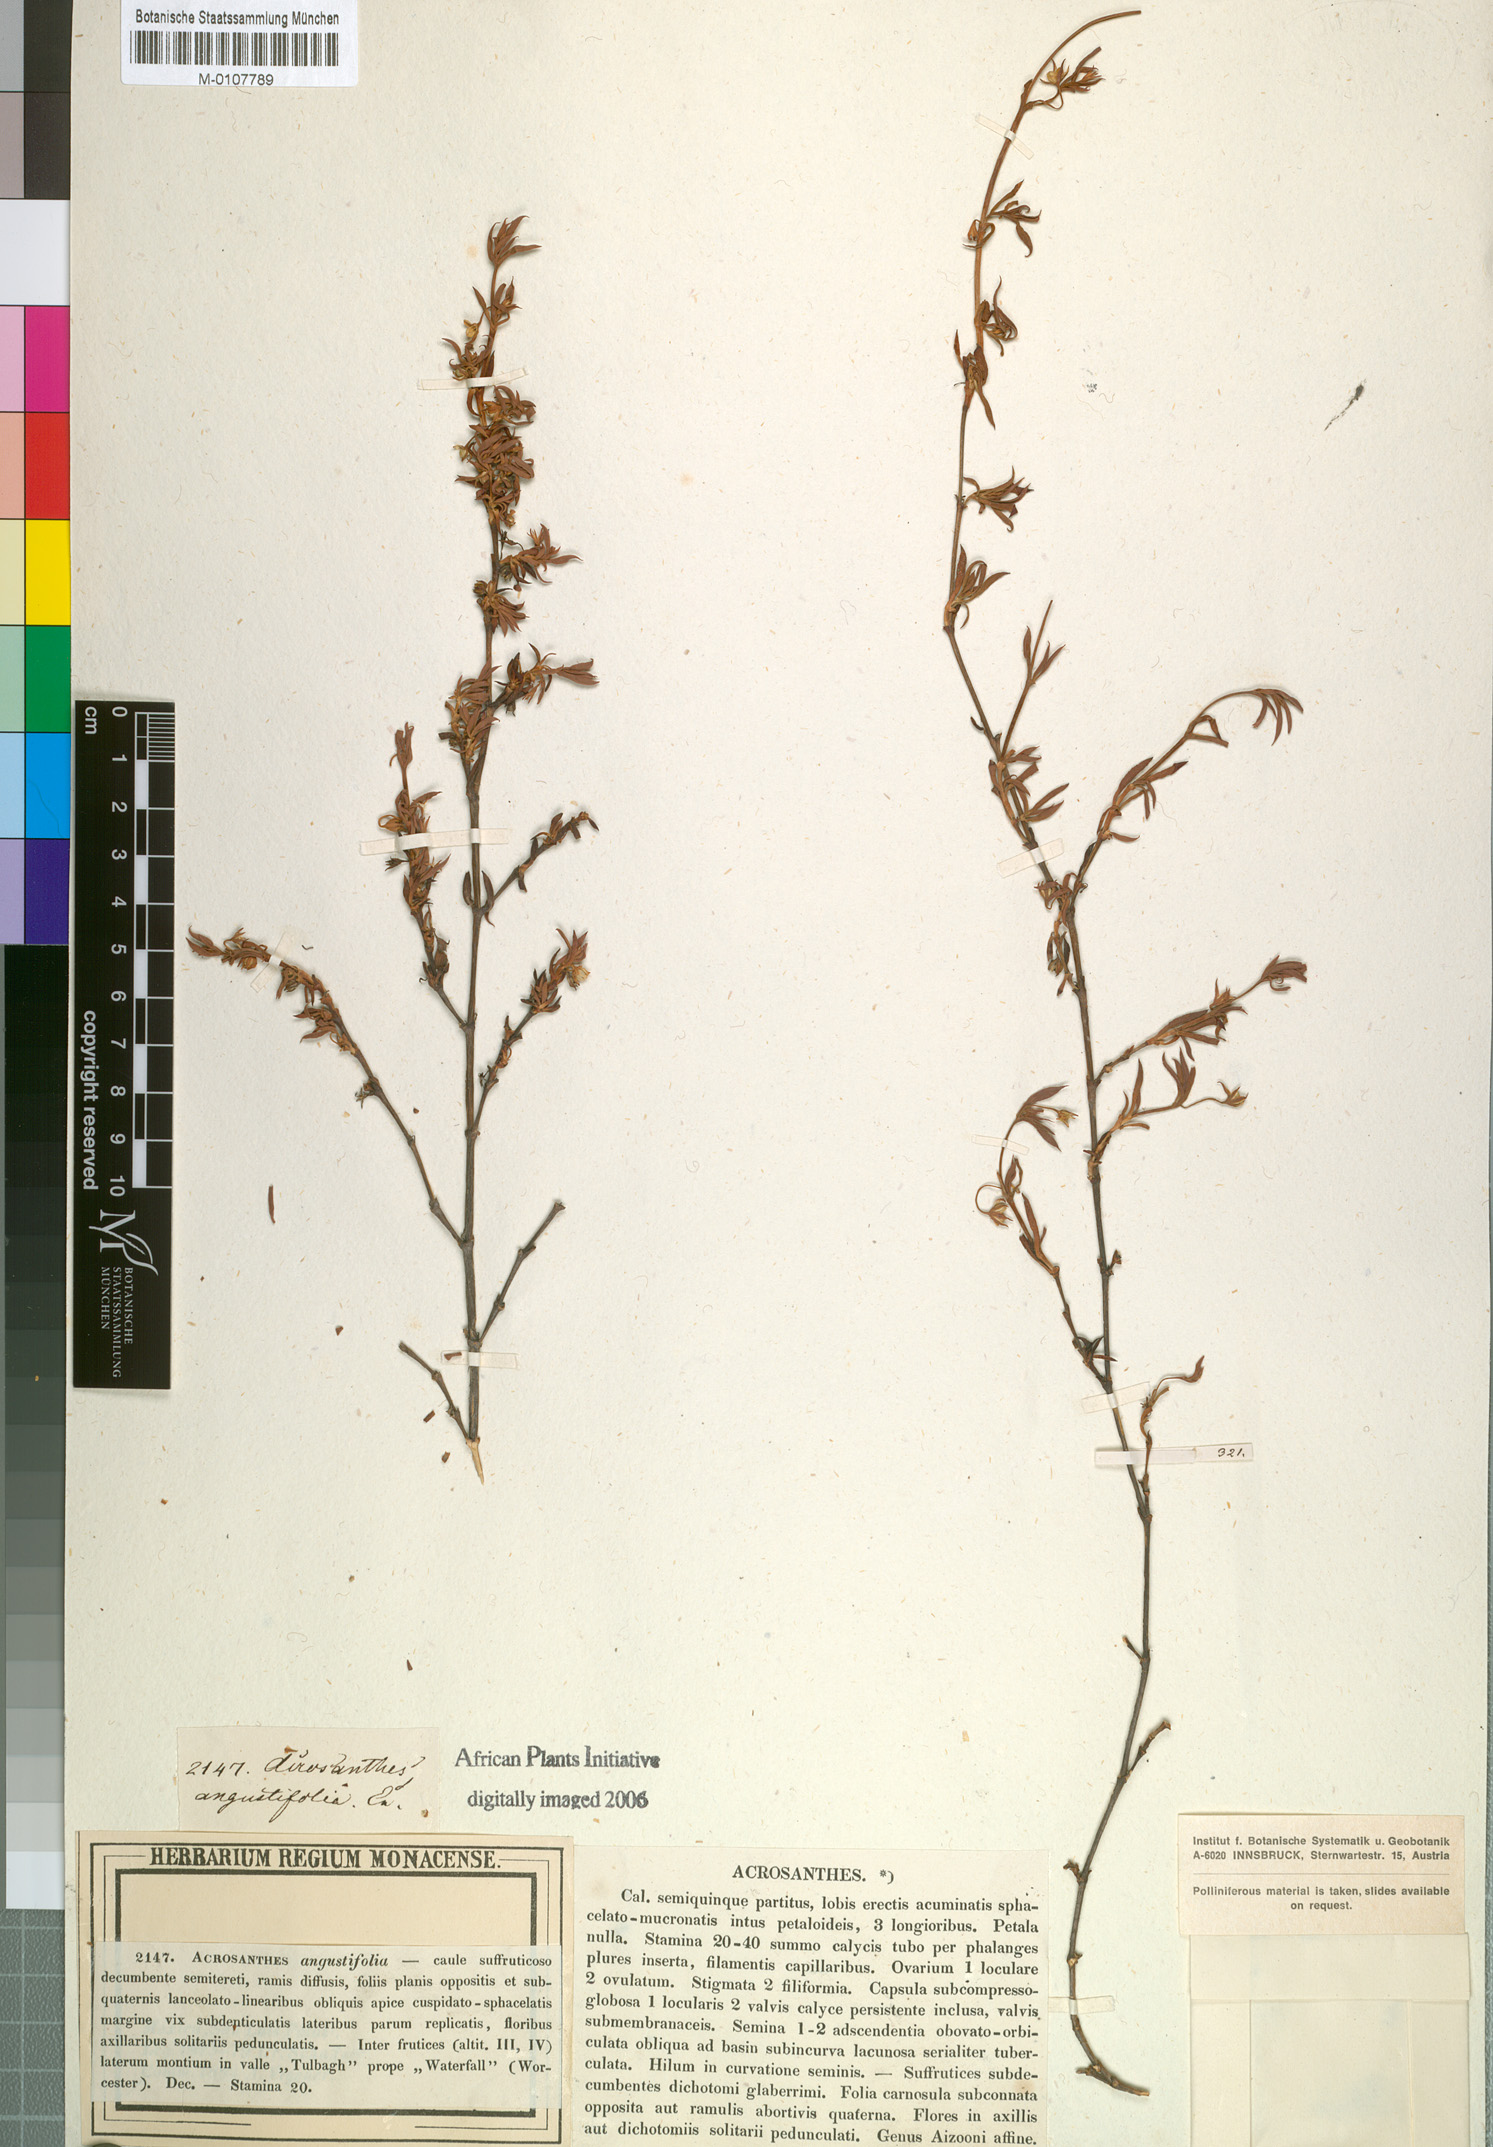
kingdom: Plantae
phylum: Tracheophyta
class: Magnoliopsida
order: Caryophyllales
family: Aizoaceae
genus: Acrosanthes
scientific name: Acrosanthes angustifolia
